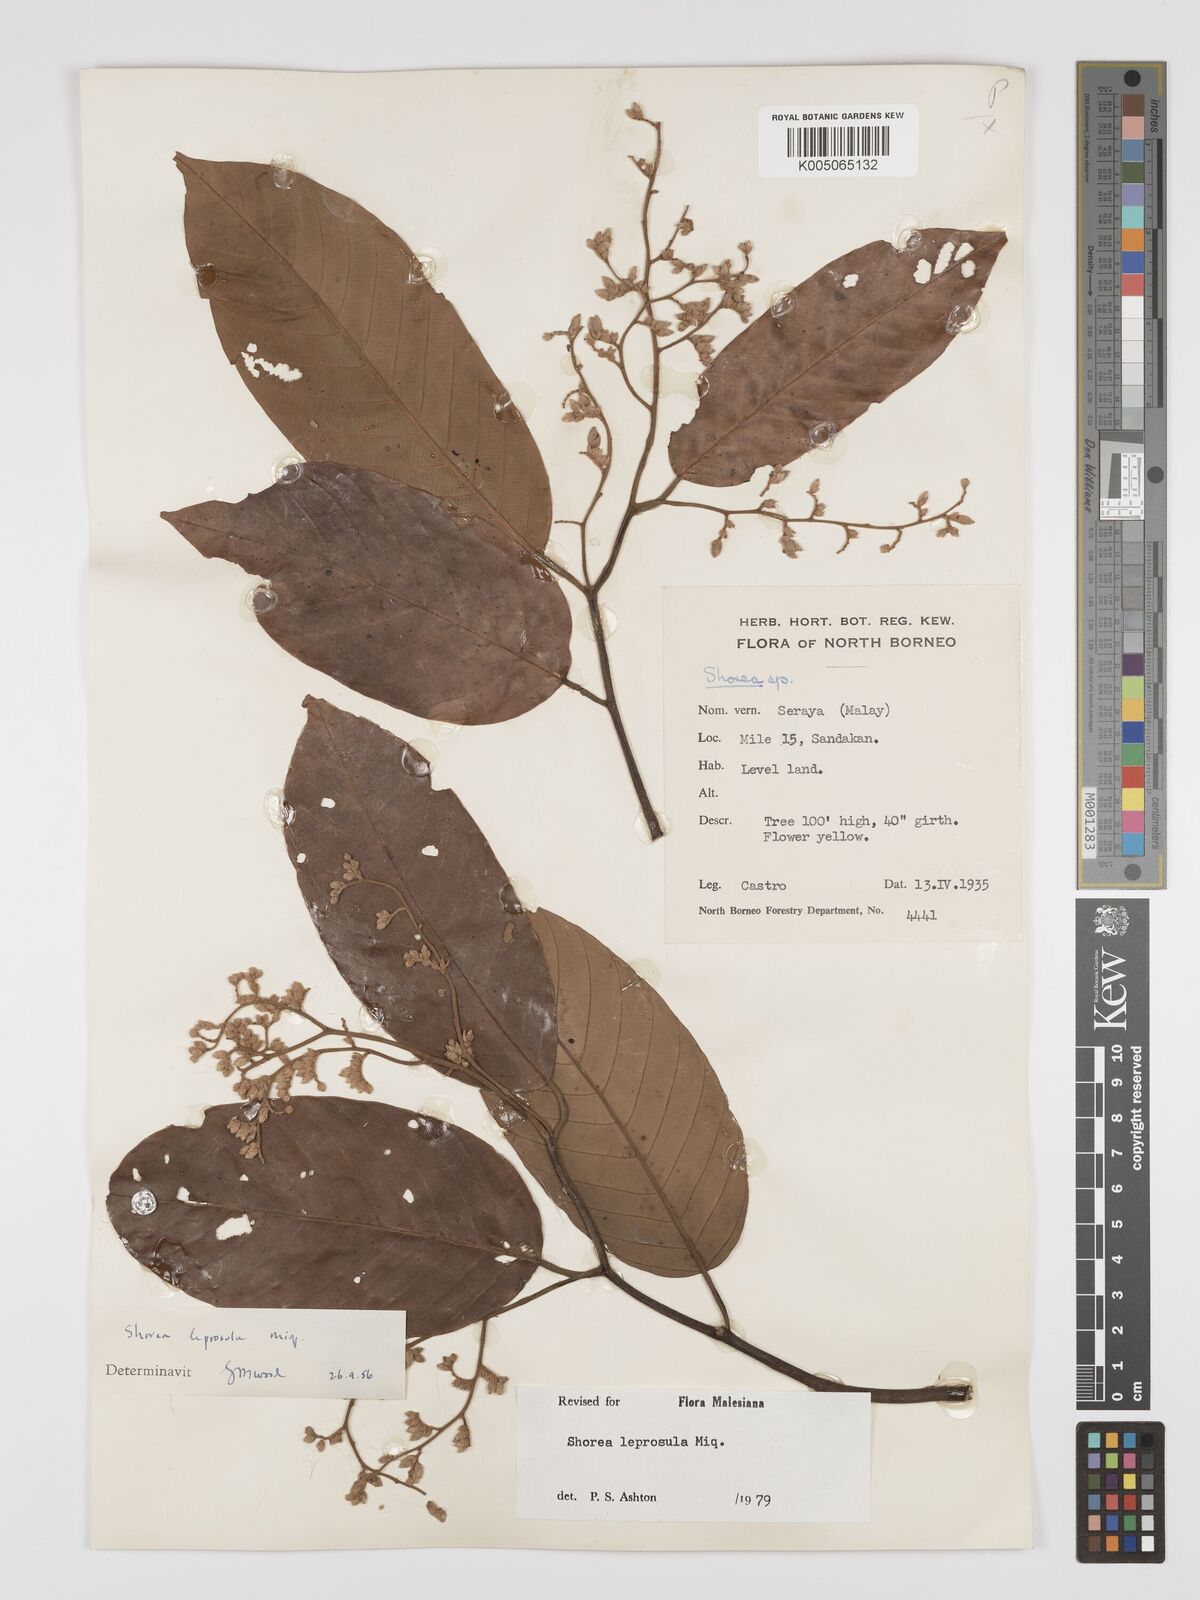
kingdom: Plantae
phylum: Tracheophyta
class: Magnoliopsida
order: Malvales
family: Dipterocarpaceae
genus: Shorea
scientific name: Shorea leprosula
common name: Light red meranti
